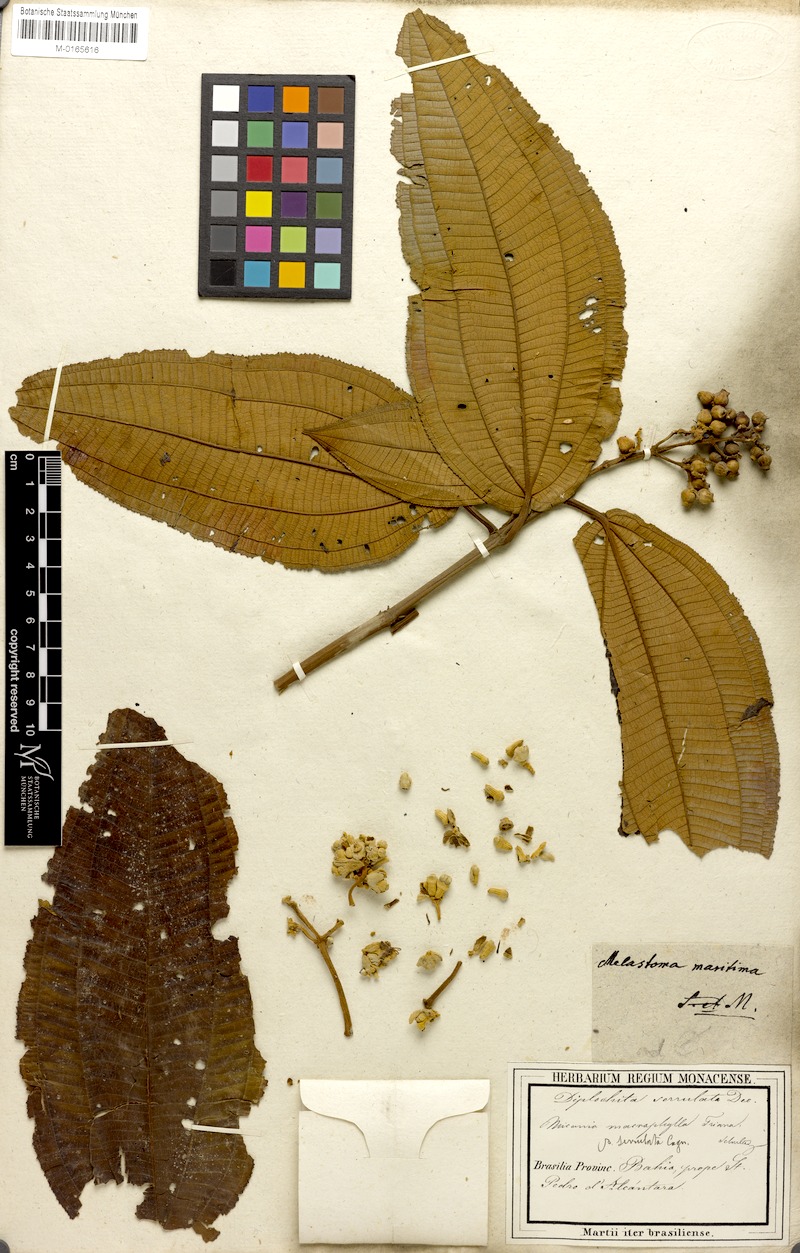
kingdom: Plantae
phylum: Tracheophyta
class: Magnoliopsida
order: Myrtales
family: Melastomataceae
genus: Miconia
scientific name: Miconia serrulata
